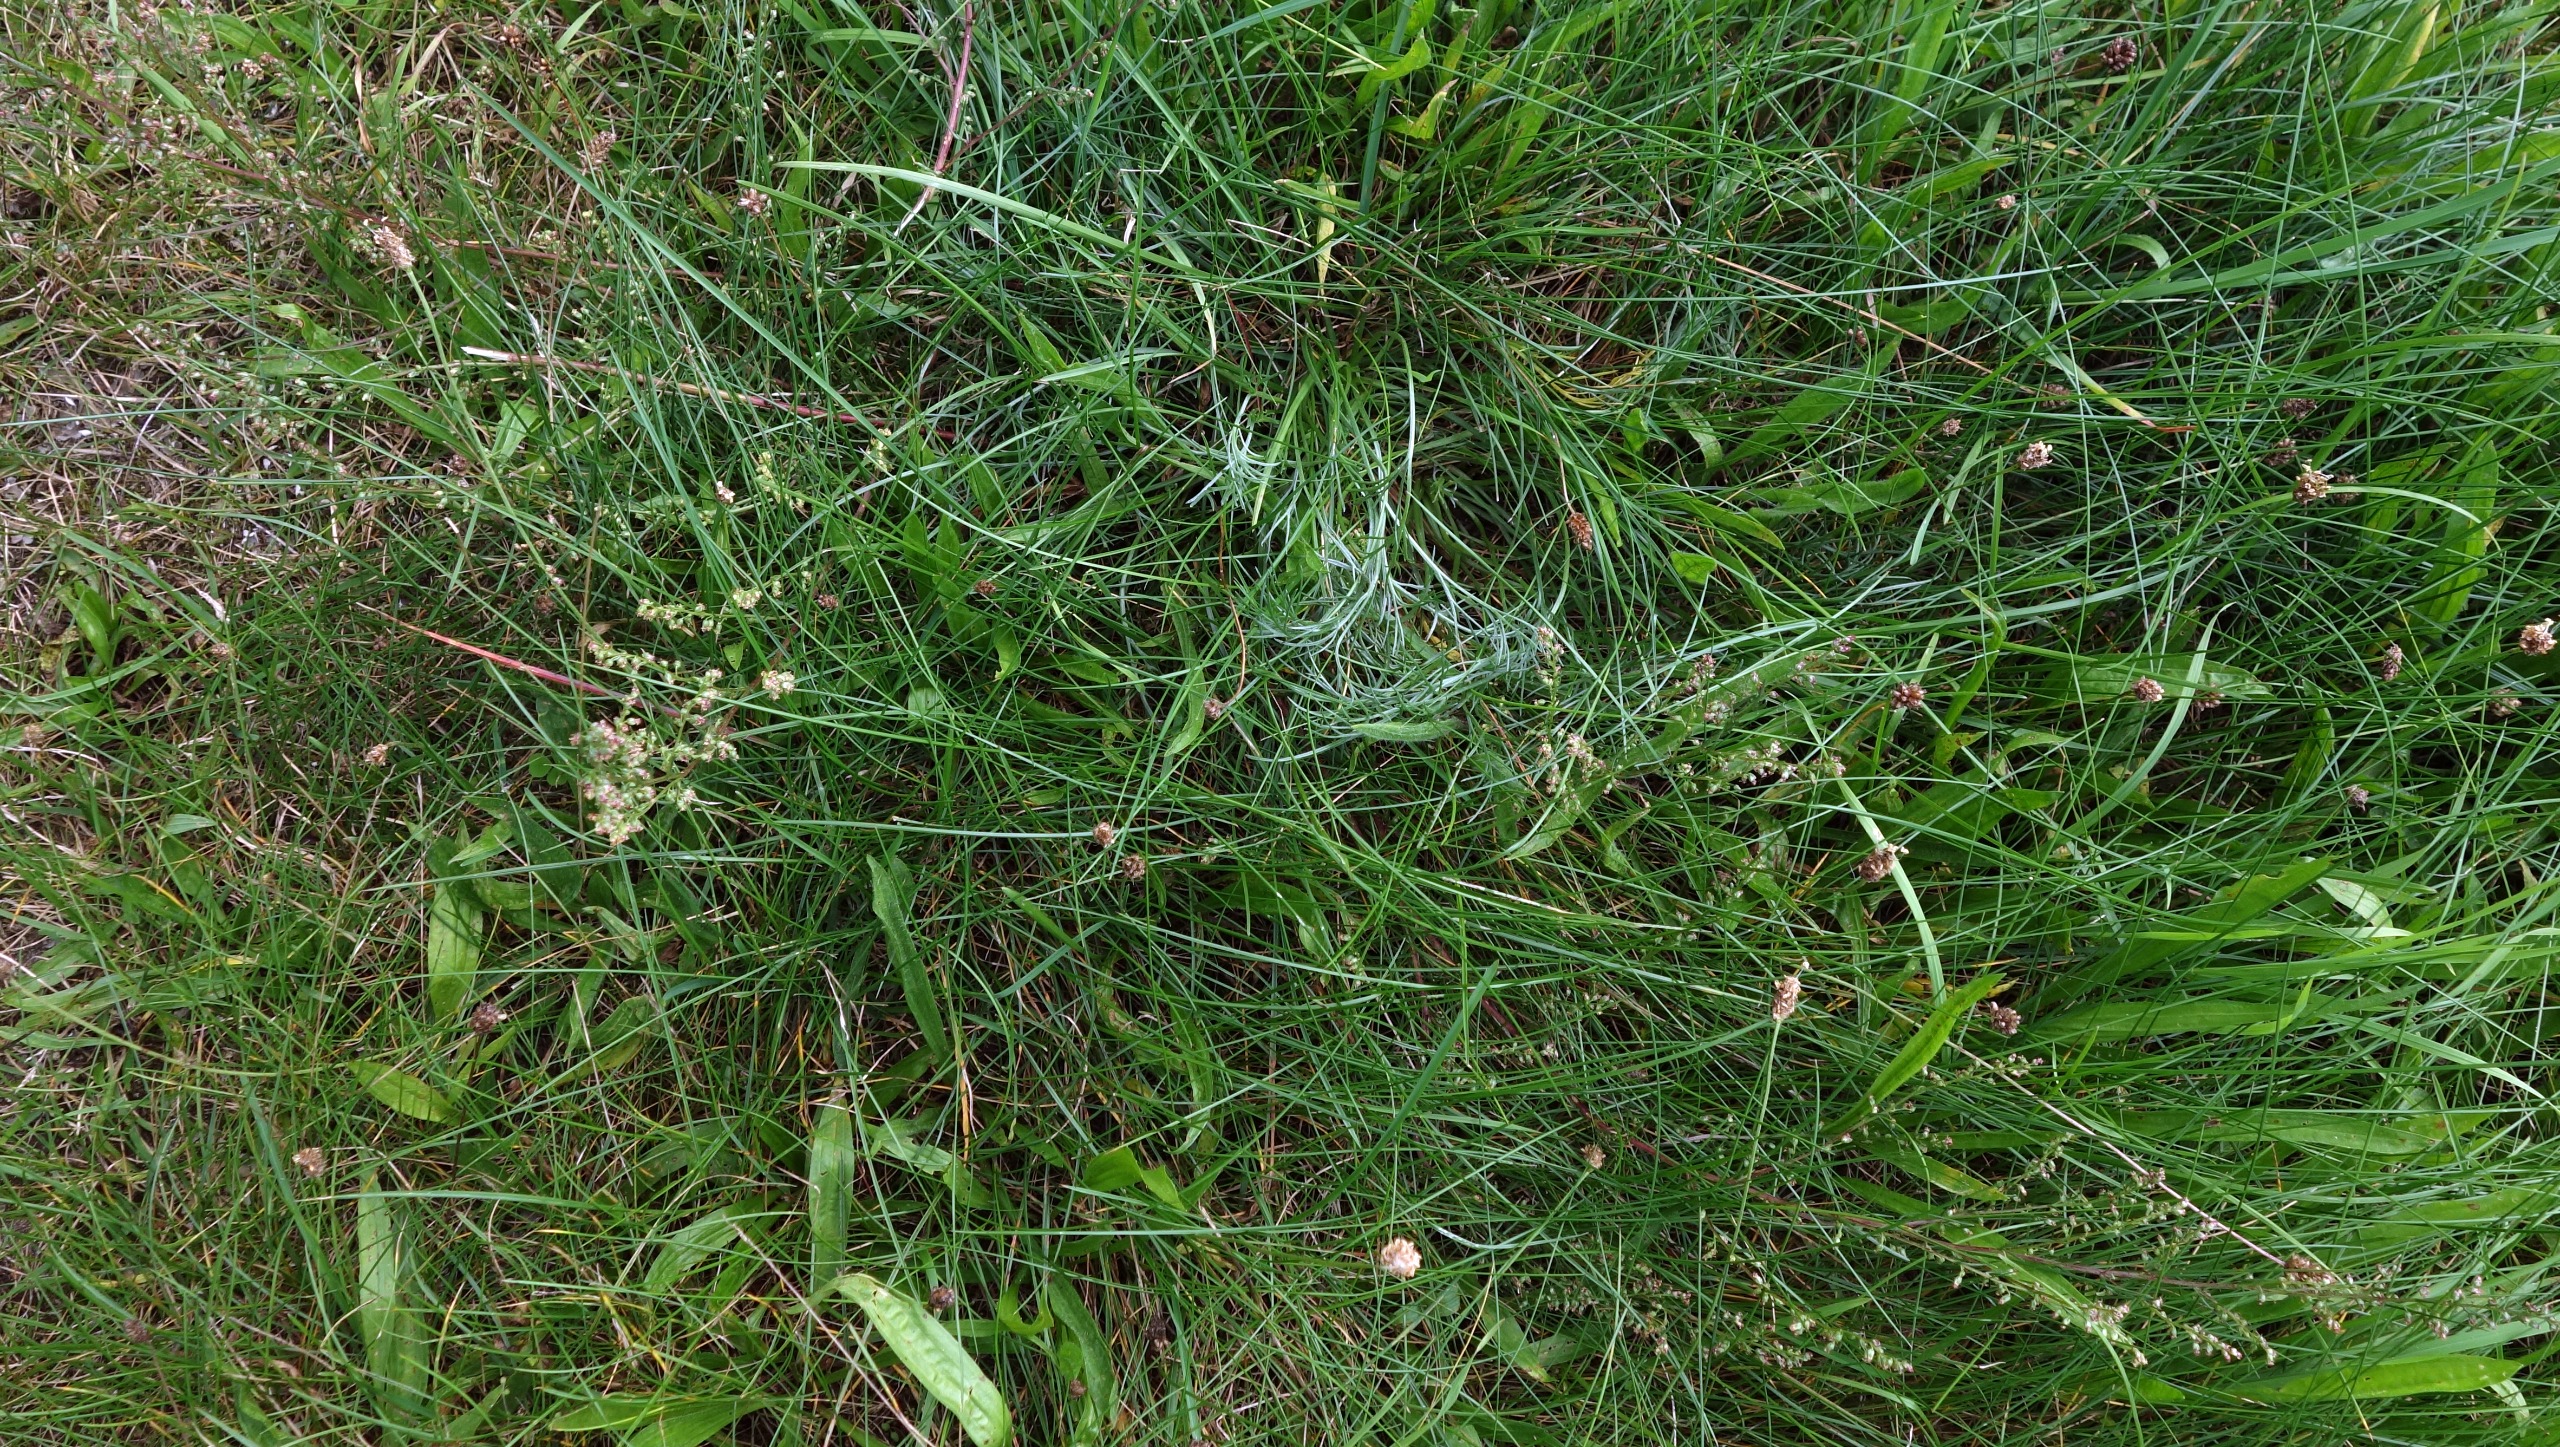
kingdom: Plantae
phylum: Tracheophyta
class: Magnoliopsida
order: Asterales
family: Asteraceae
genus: Artemisia
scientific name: Artemisia campestris
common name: Mark-bynke
